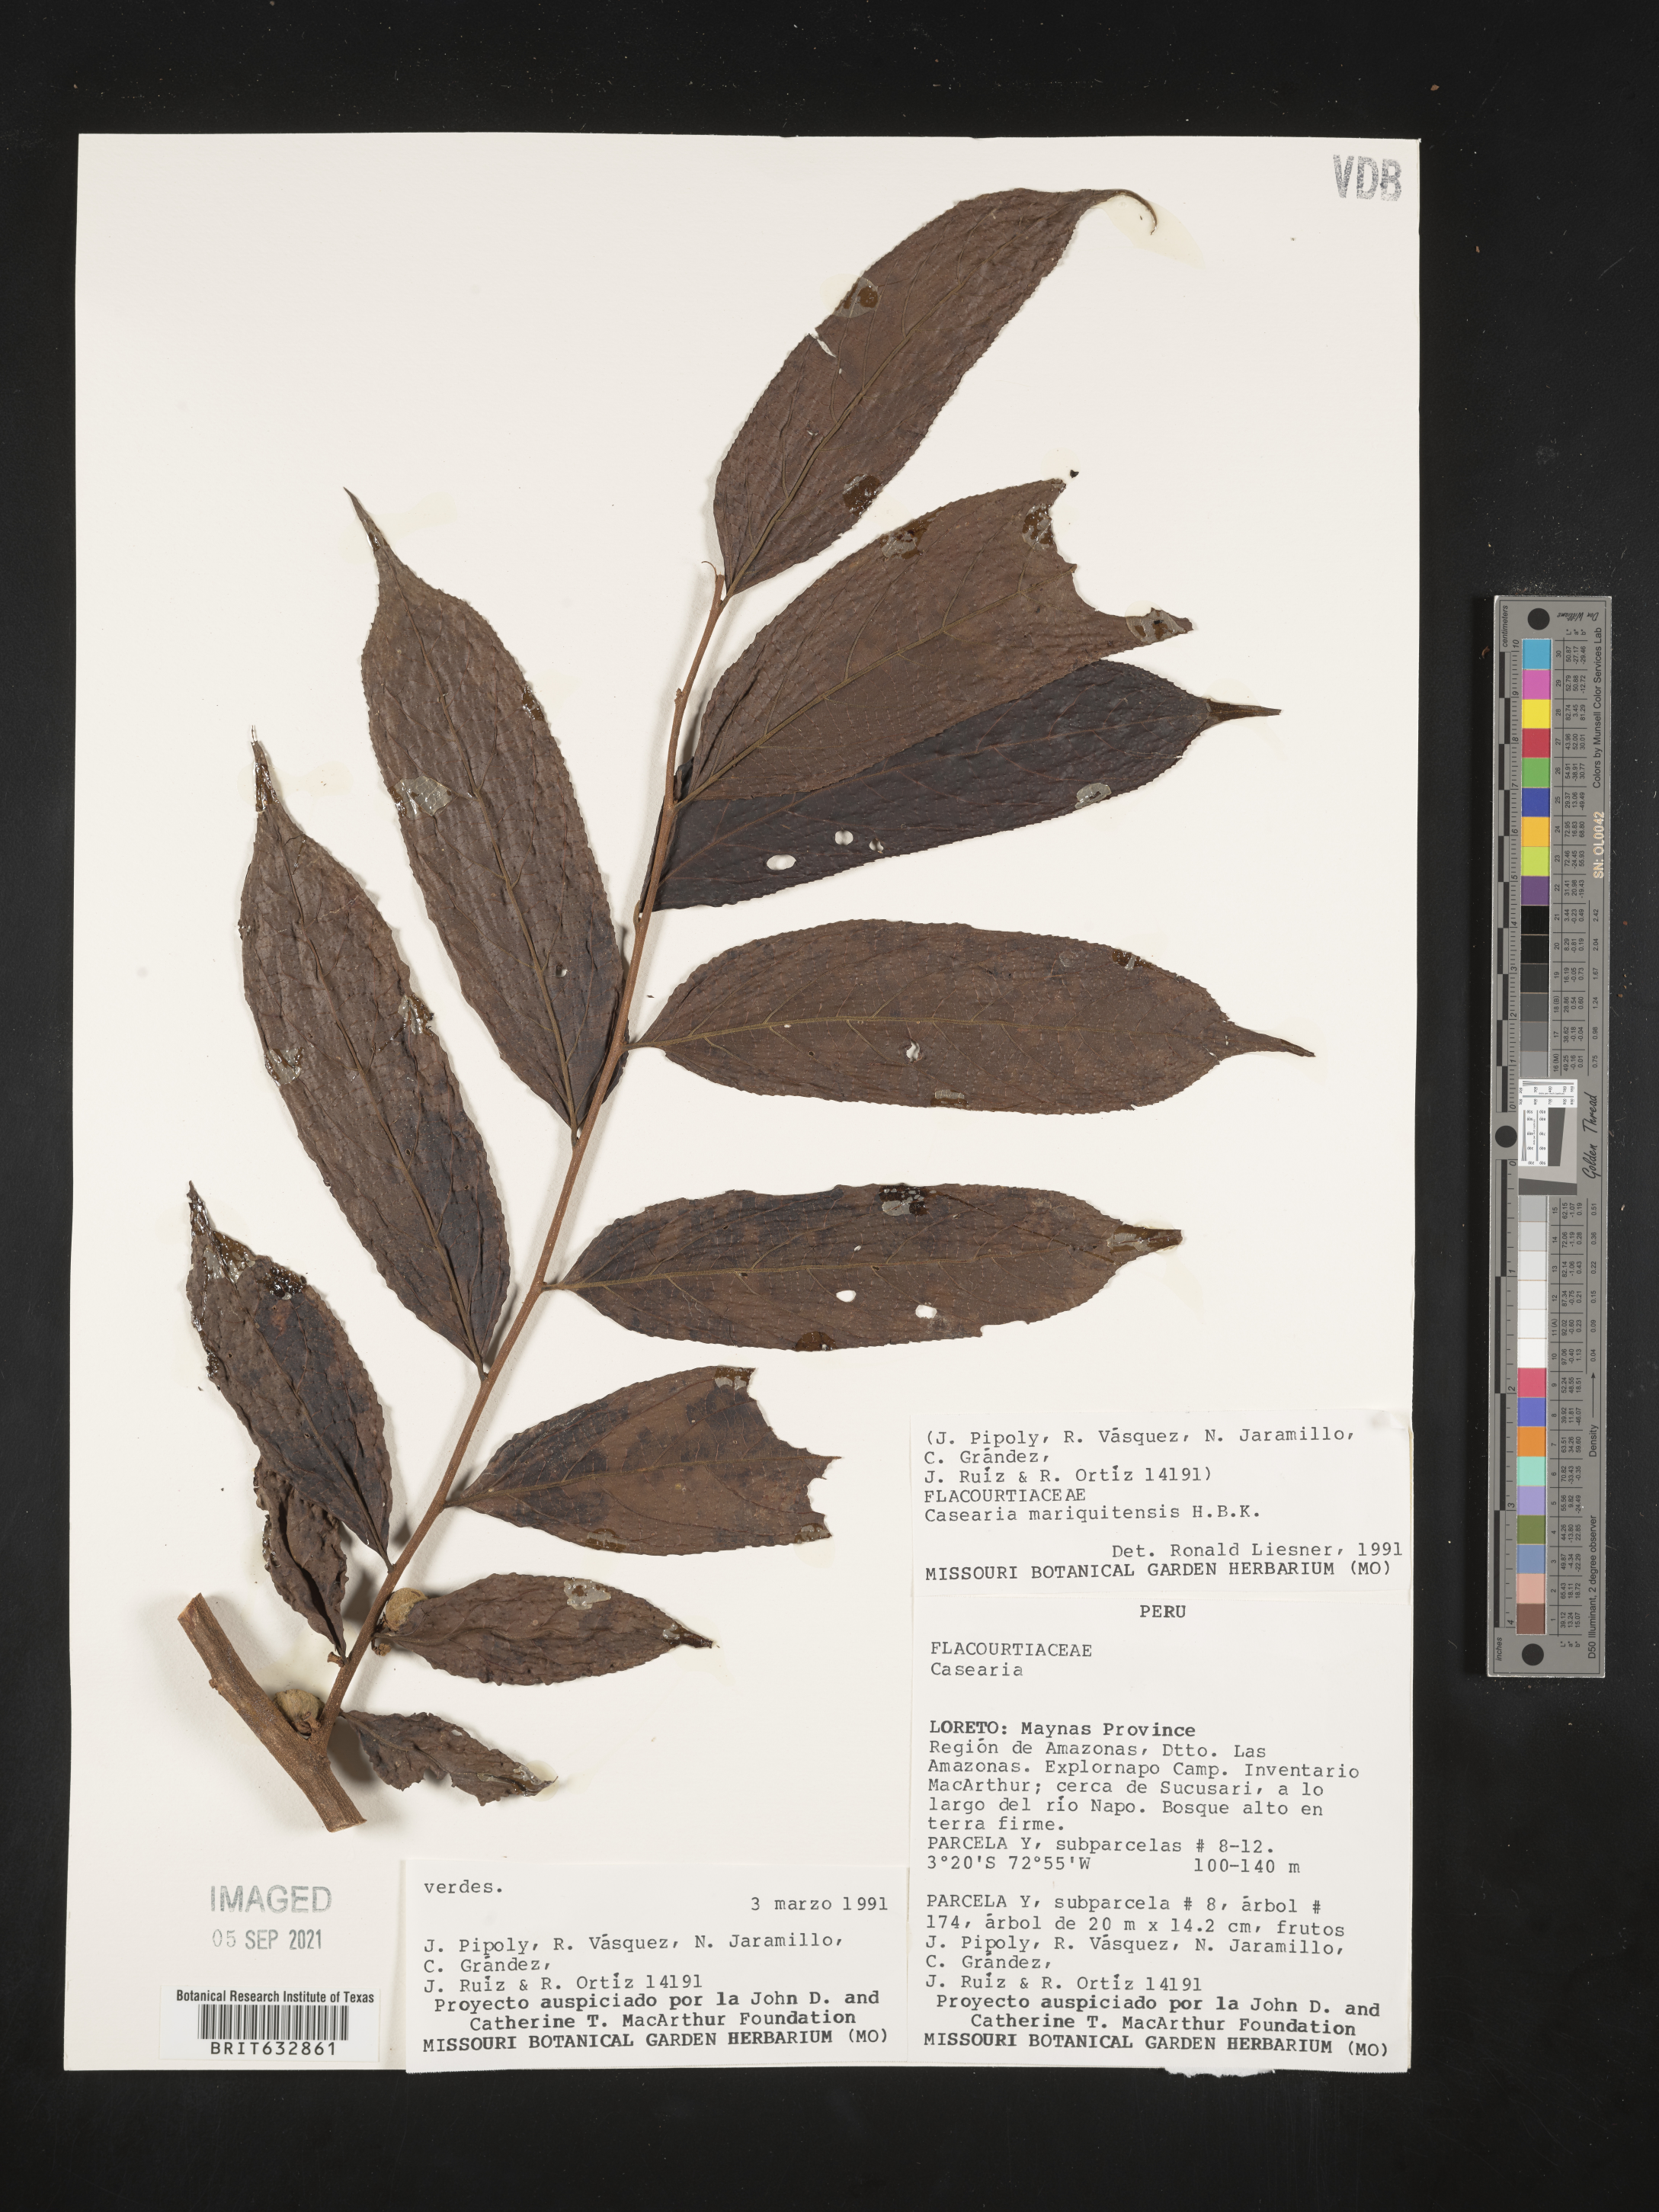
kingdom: Plantae
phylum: Tracheophyta
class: Magnoliopsida
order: Malpighiales
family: Salicaceae
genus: Casearia
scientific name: Casearia
